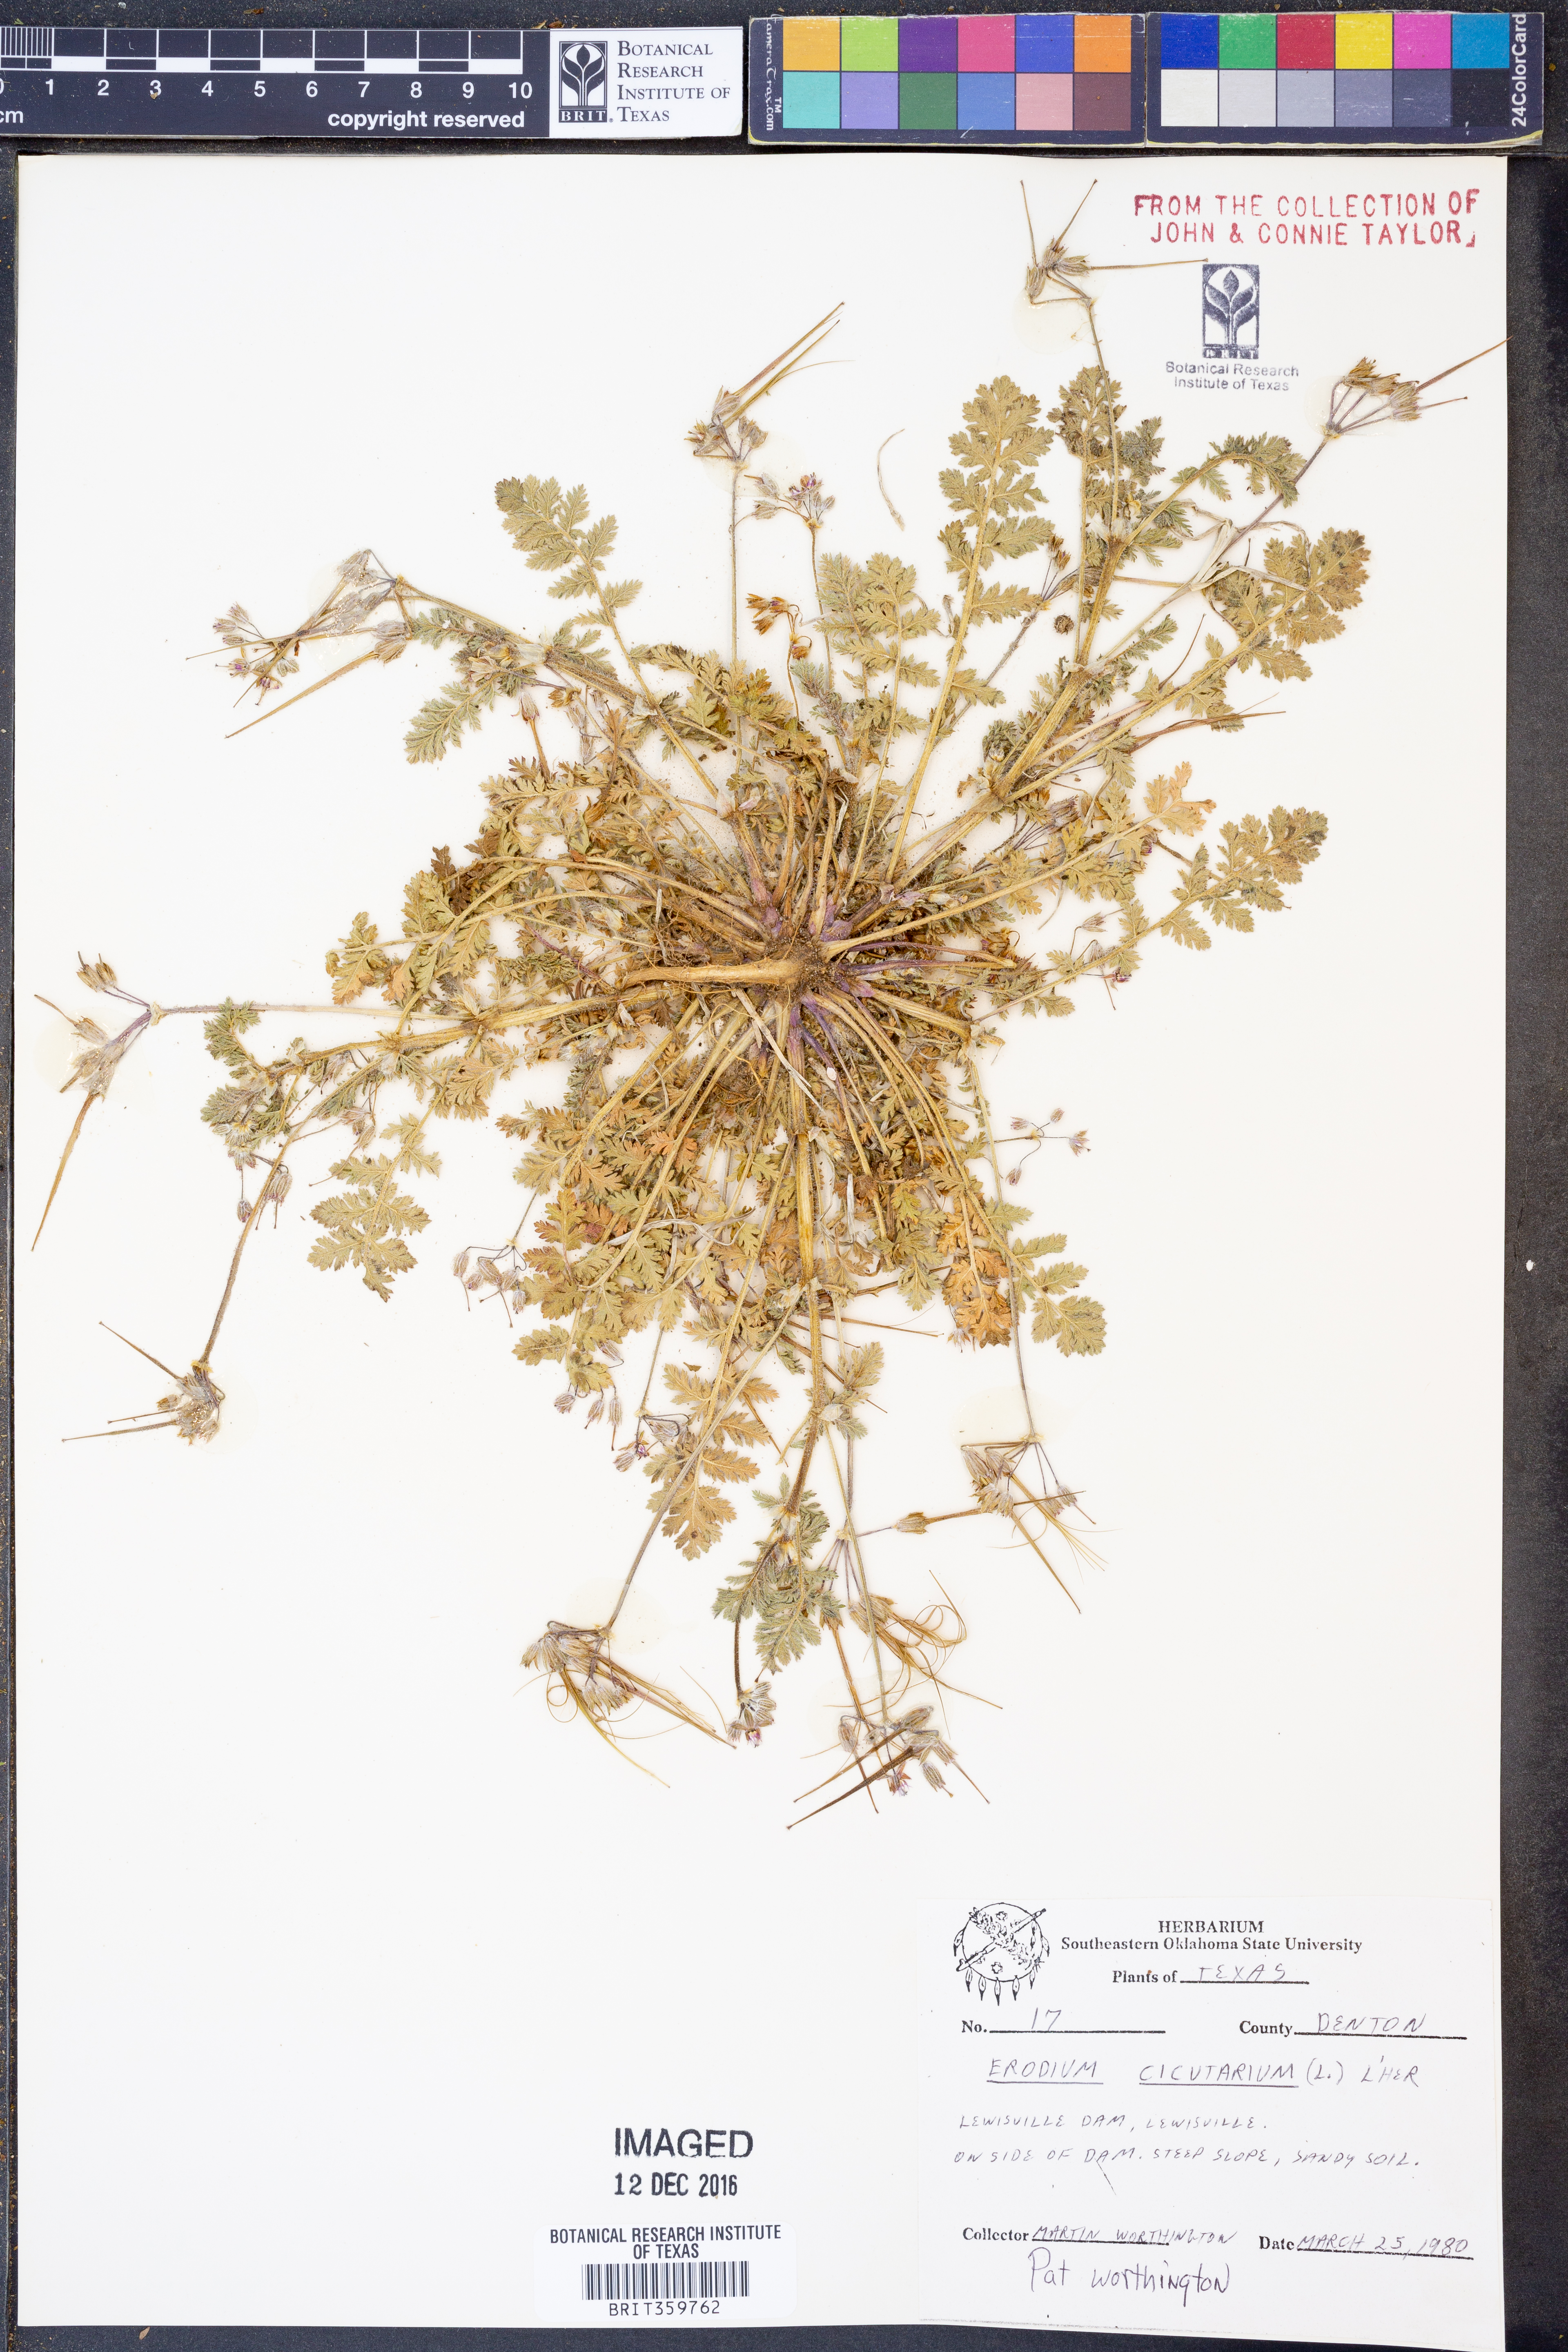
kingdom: Plantae
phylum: Tracheophyta
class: Magnoliopsida
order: Geraniales
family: Geraniaceae
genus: Erodium
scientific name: Erodium cicutarium
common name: Common stork's-bill
